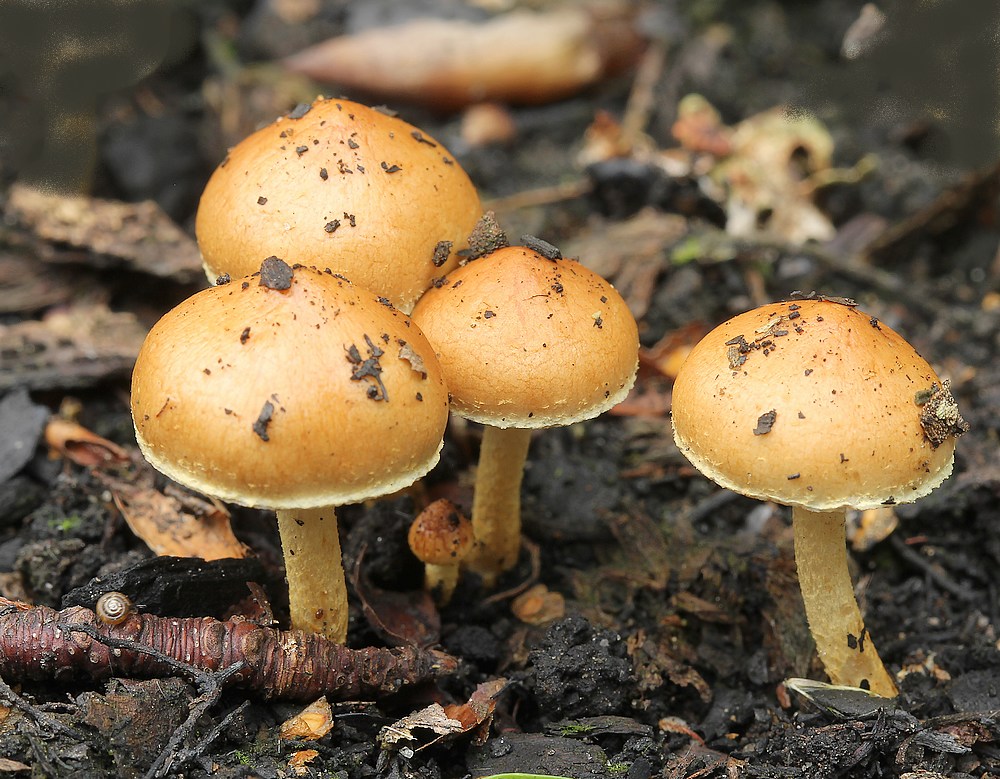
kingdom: Fungi
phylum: Basidiomycota
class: Agaricomycetes
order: Agaricales
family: Strophariaceae
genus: Pholiota
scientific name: Pholiota carbonaria
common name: kul-skælhat
